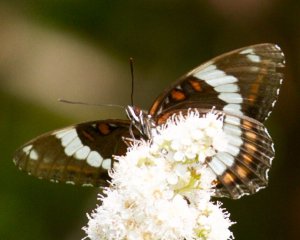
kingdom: Animalia
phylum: Arthropoda
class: Insecta
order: Lepidoptera
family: Nymphalidae
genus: Limenitis
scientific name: Limenitis arthemis
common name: Red-spotted Admiral
